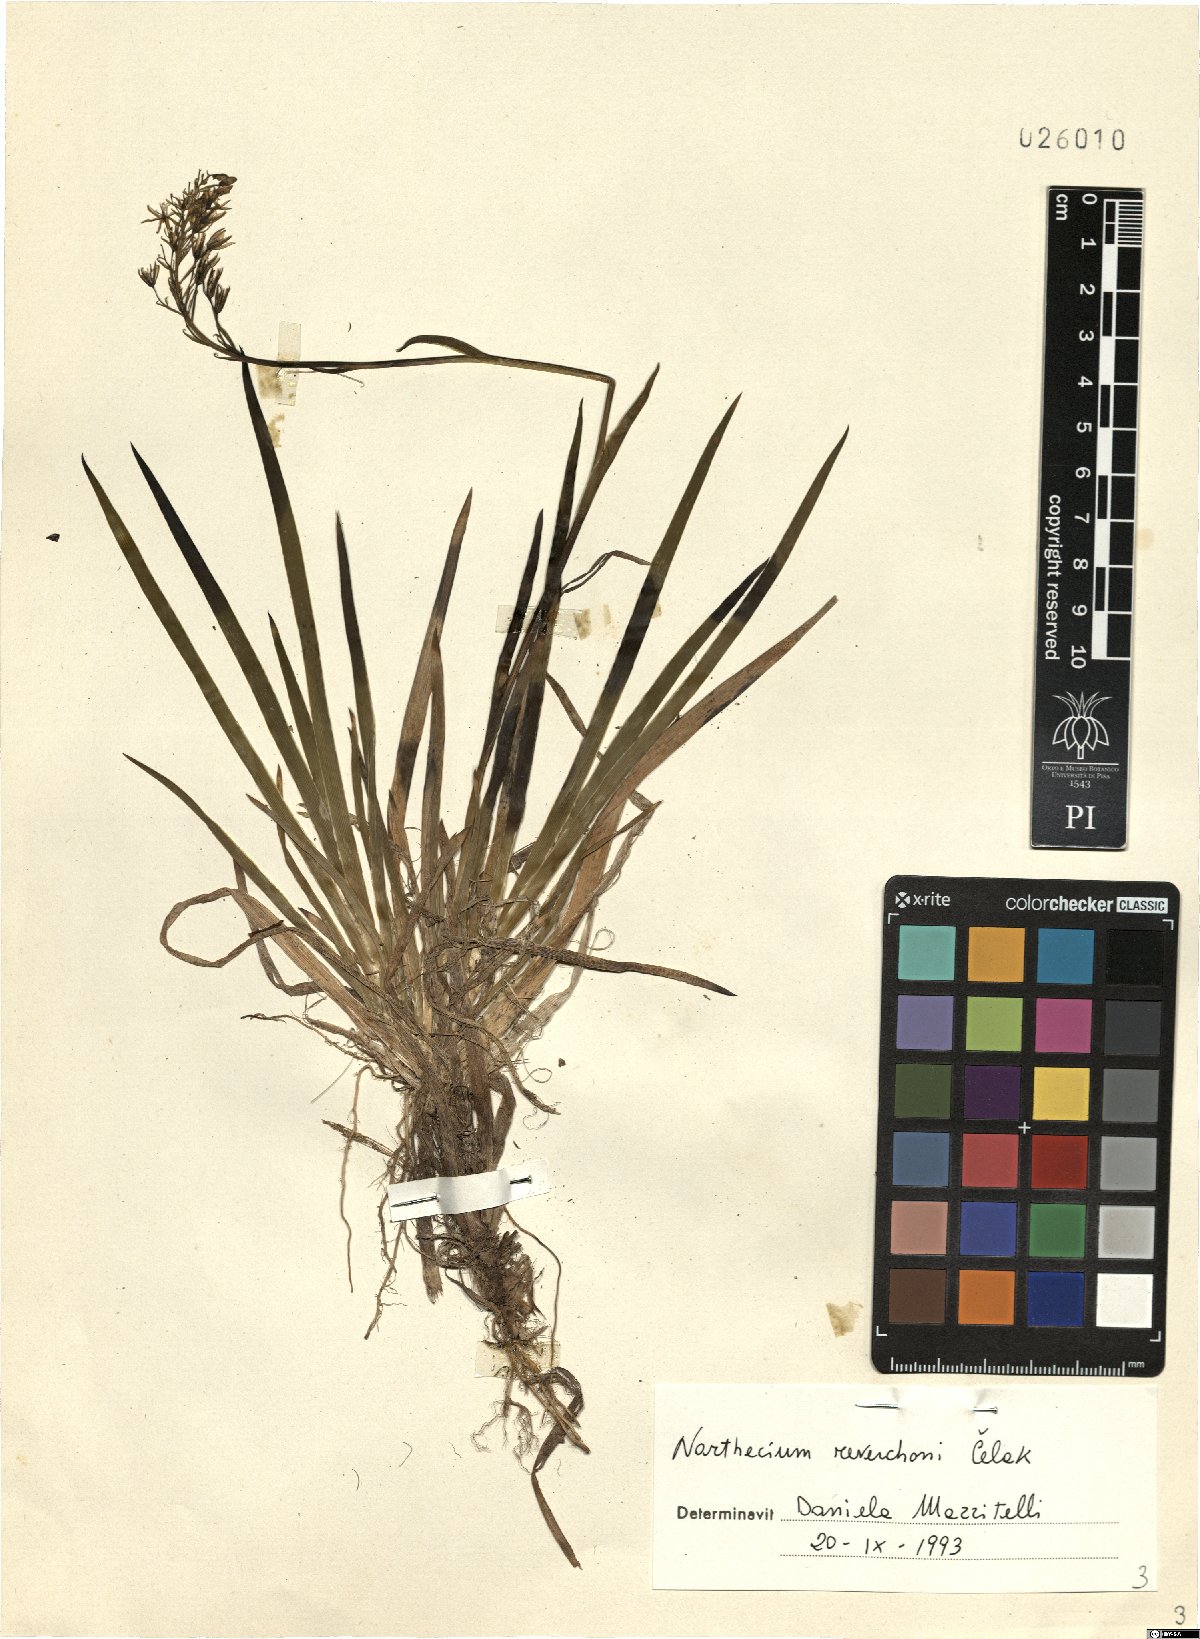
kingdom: Plantae
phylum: Tracheophyta
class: Liliopsida
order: Dioscoreales
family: Nartheciaceae
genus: Narthecium
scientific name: Narthecium reverchonii
